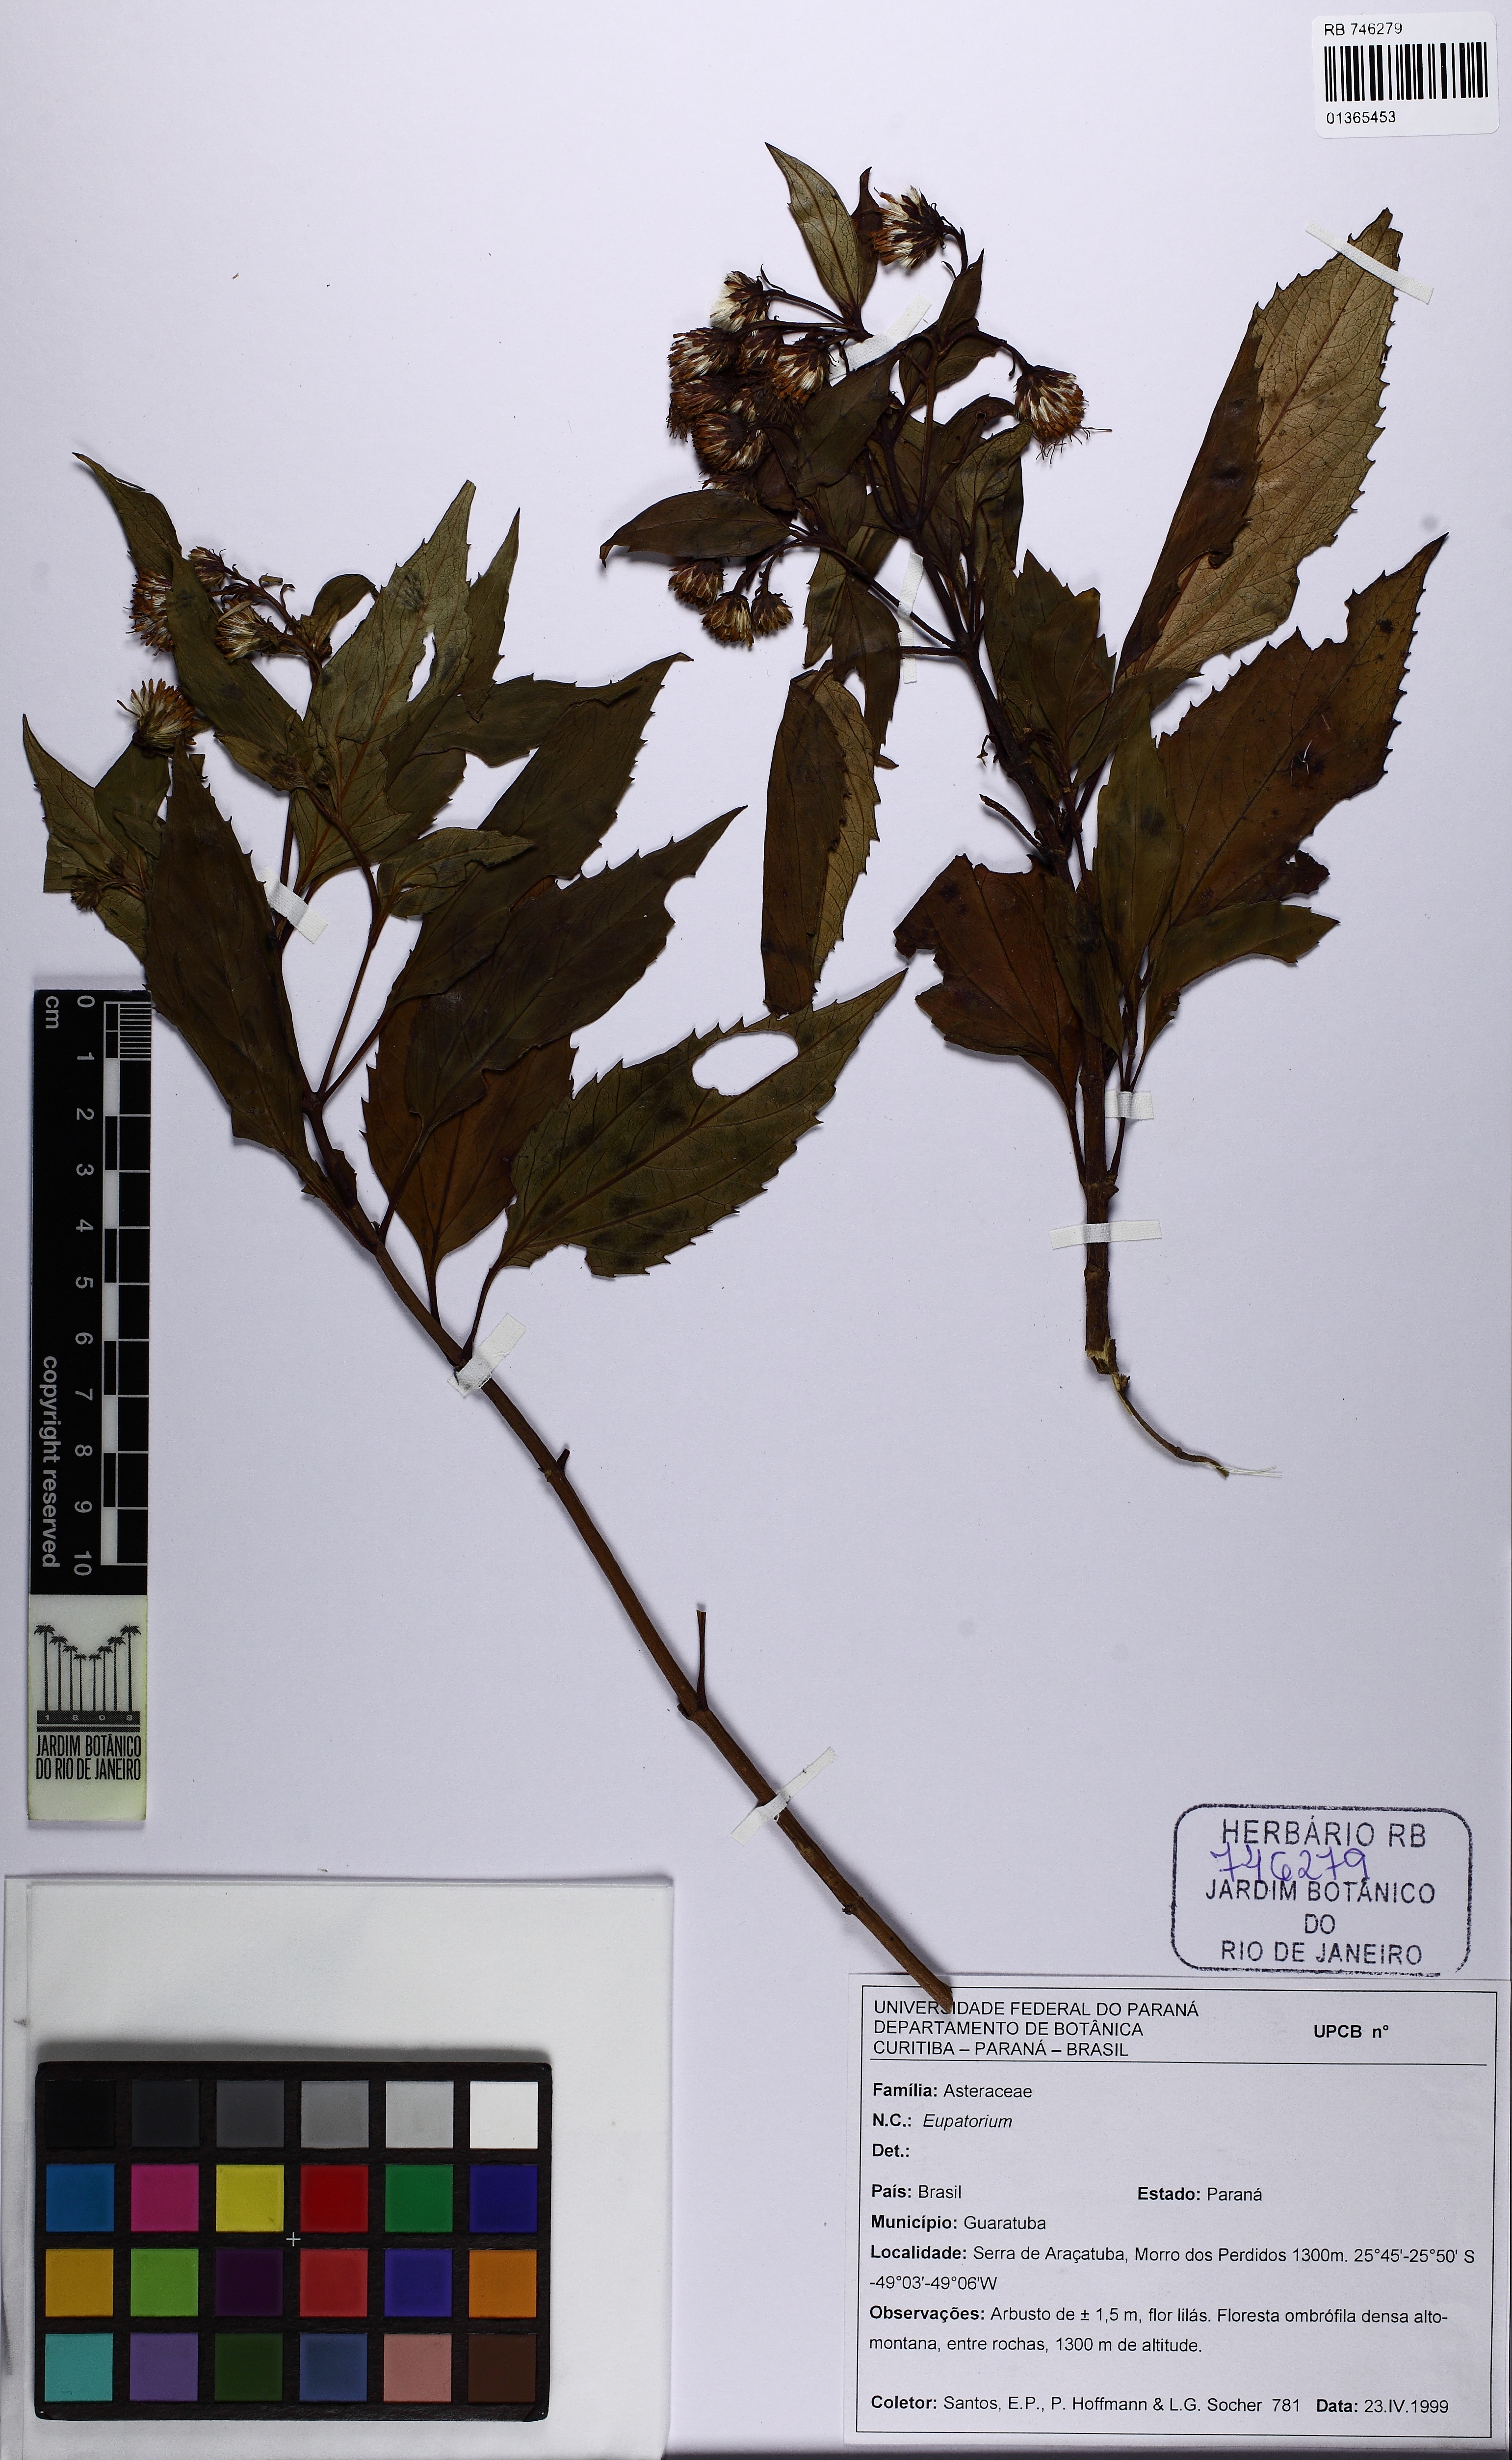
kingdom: Plantae
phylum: Tracheophyta
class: Magnoliopsida
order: Asterales
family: Asteraceae
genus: Eupatorium
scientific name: Eupatorium
